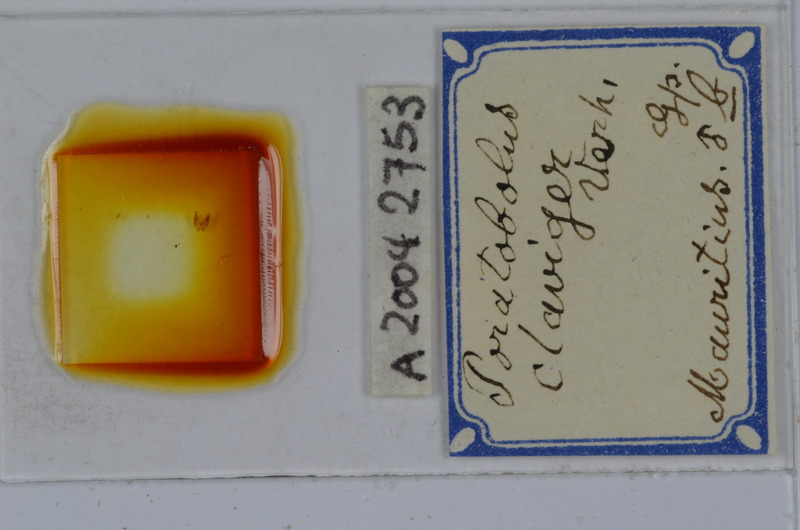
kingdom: Animalia
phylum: Arthropoda
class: Diplopoda
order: Spirobolida
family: Spirobolellidae
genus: Spirobolellus
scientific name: Spirobolellus claviger
